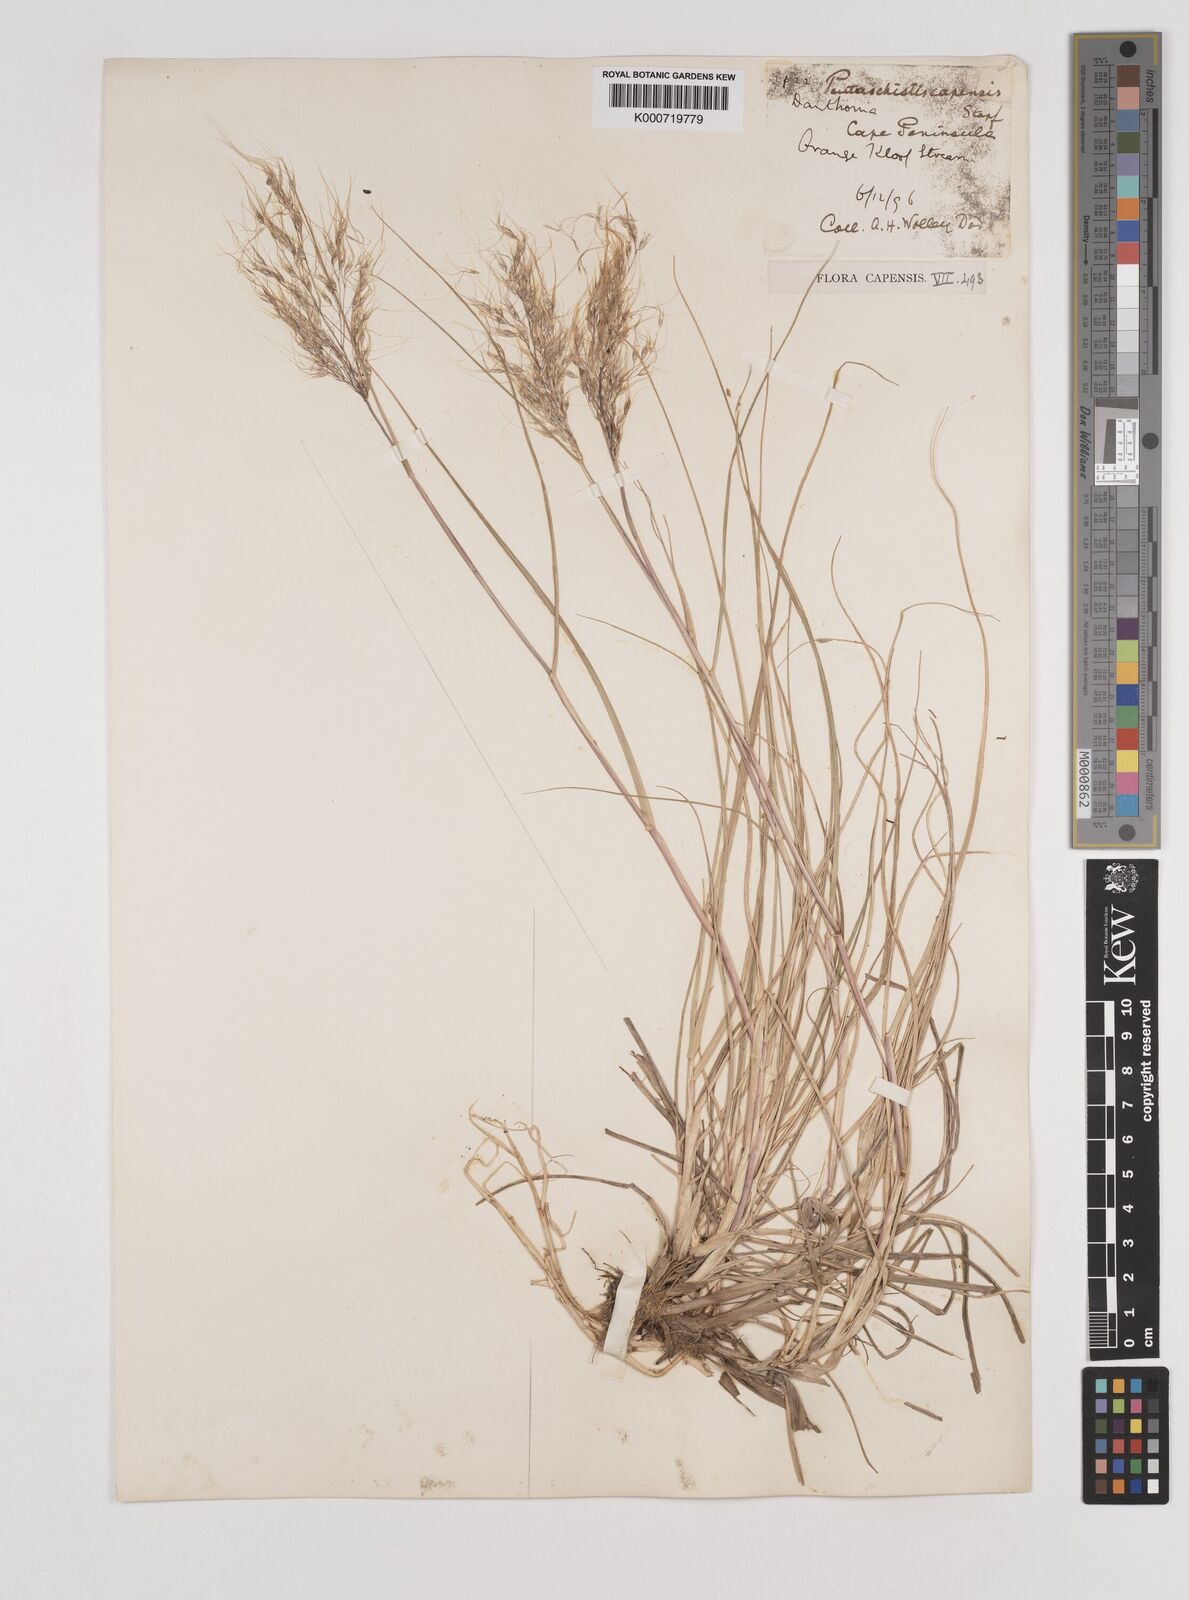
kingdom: Plantae
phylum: Tracheophyta
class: Liliopsida
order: Poales
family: Poaceae
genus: Pentameris
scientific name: Pentameris capensis
